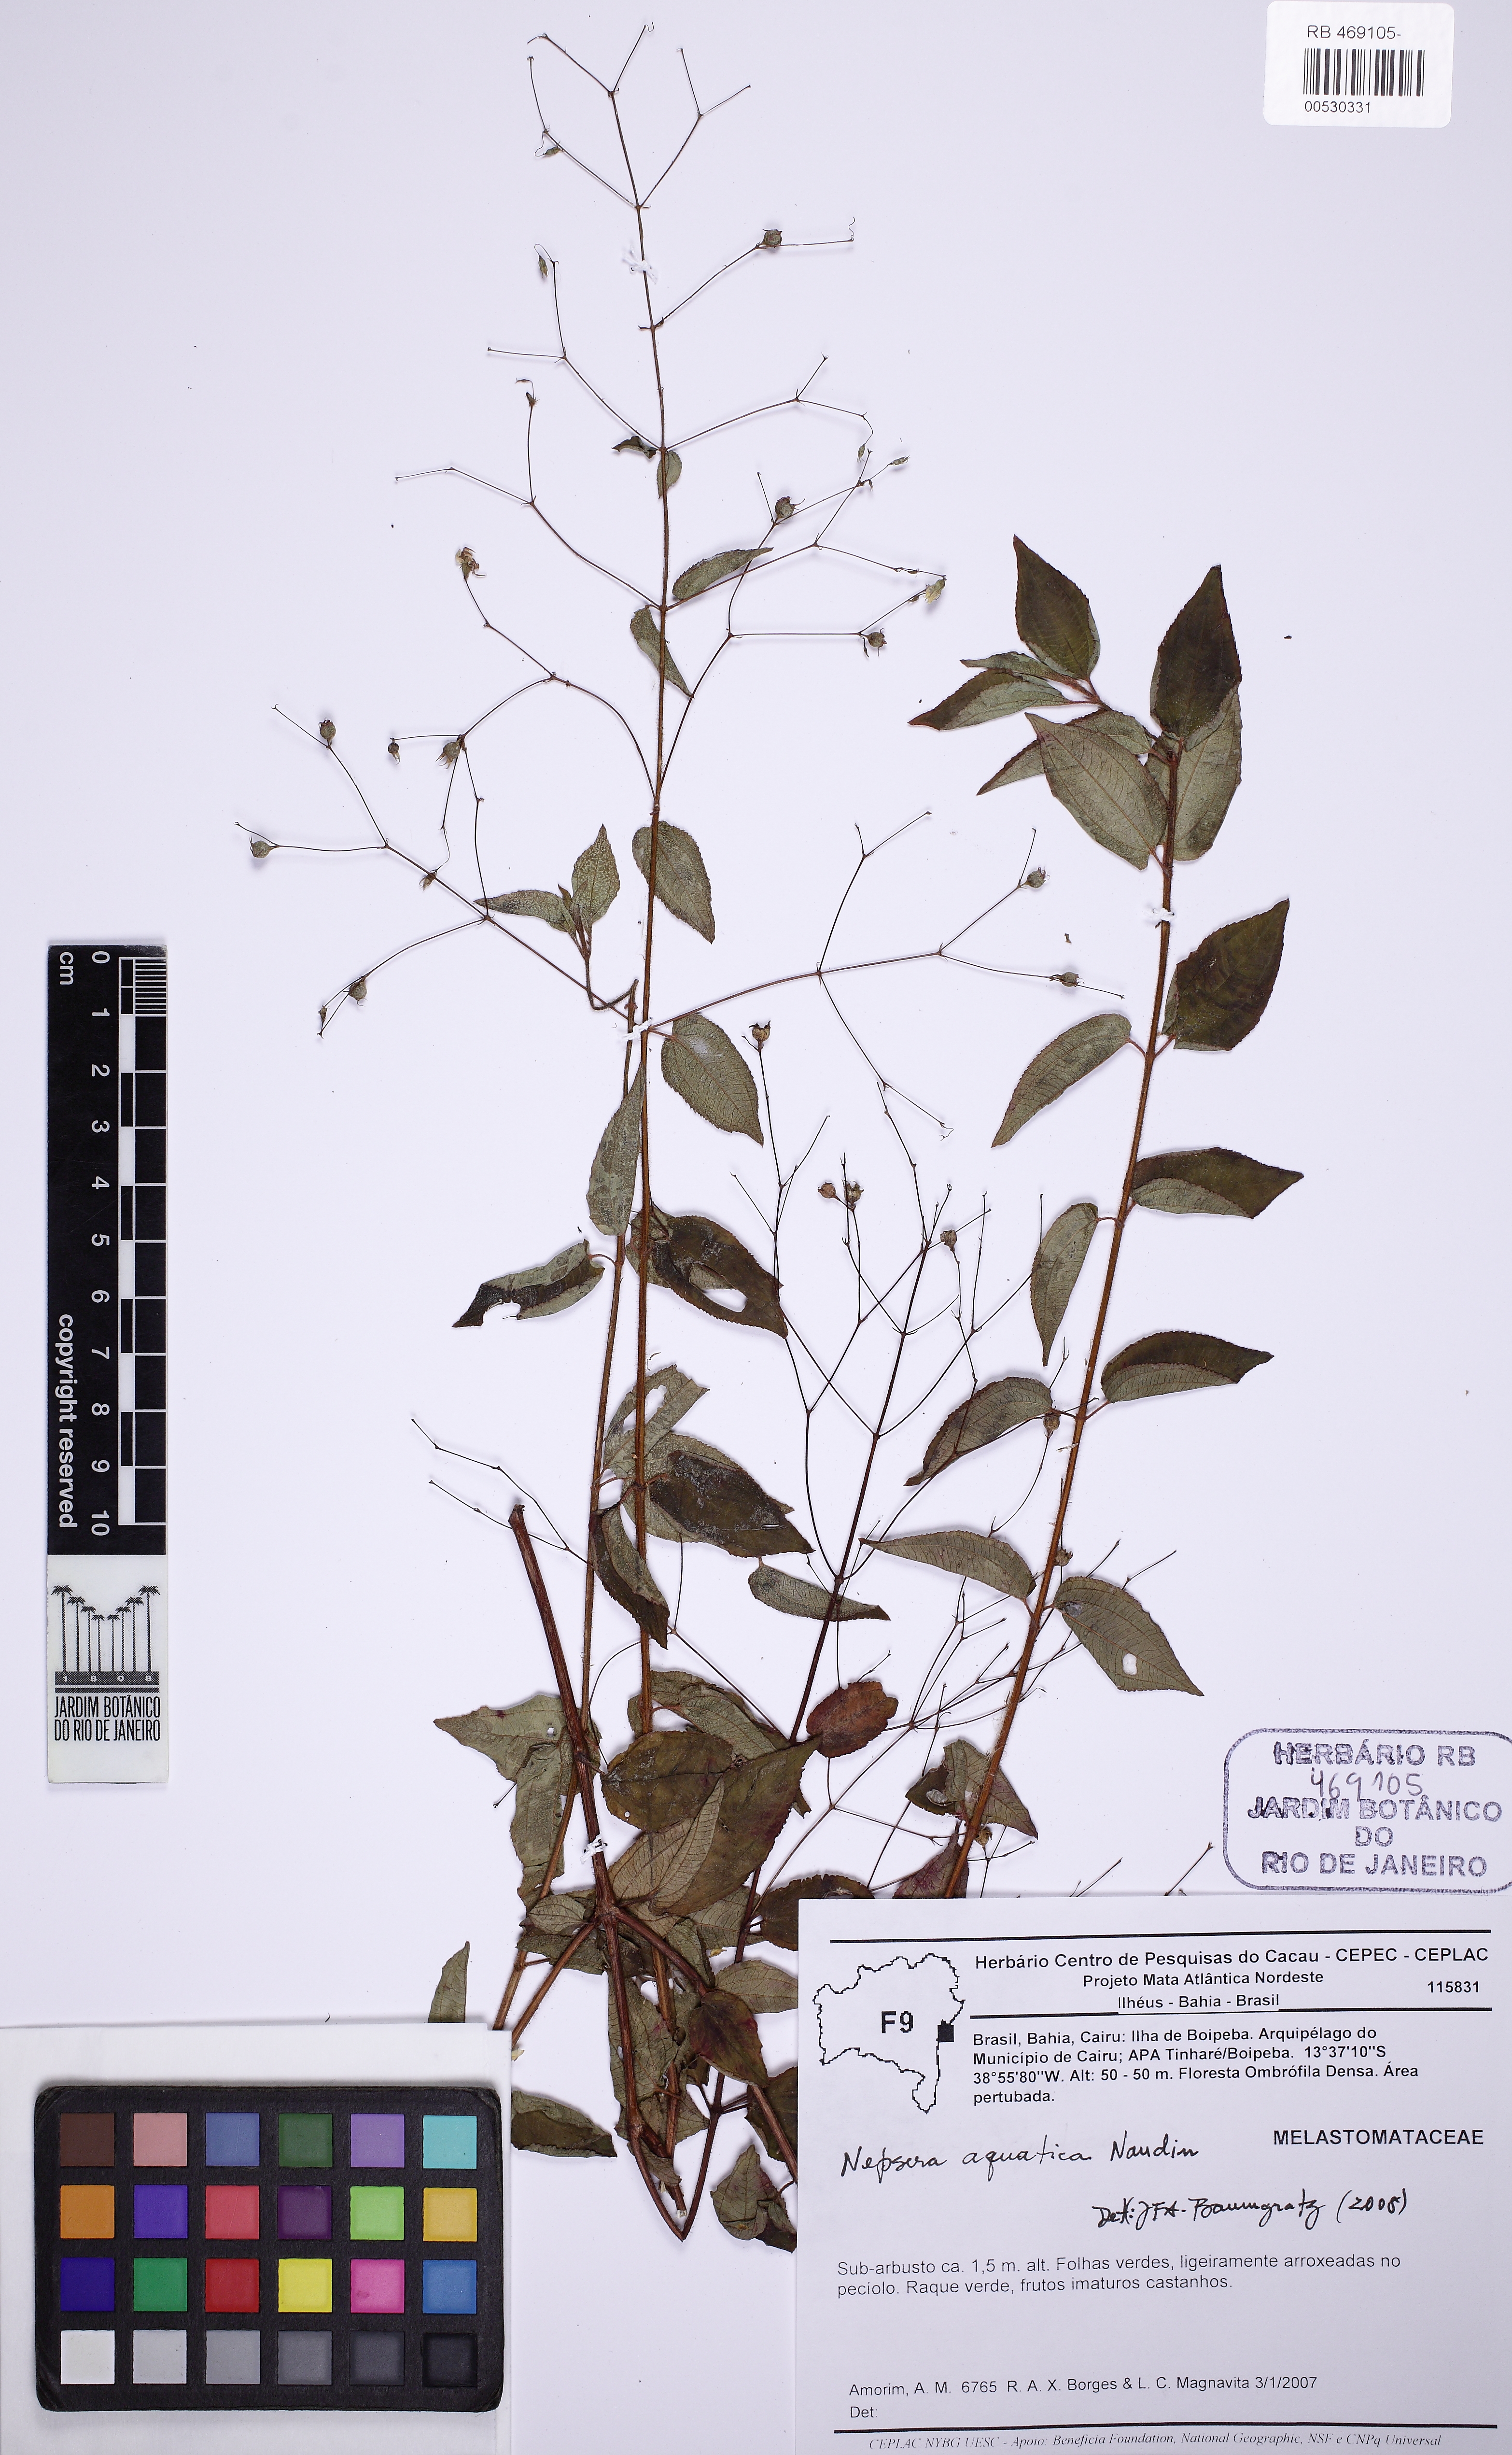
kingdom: Plantae
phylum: Tracheophyta
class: Magnoliopsida
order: Myrtales
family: Melastomataceae
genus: Nepsera
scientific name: Nepsera aquatica
